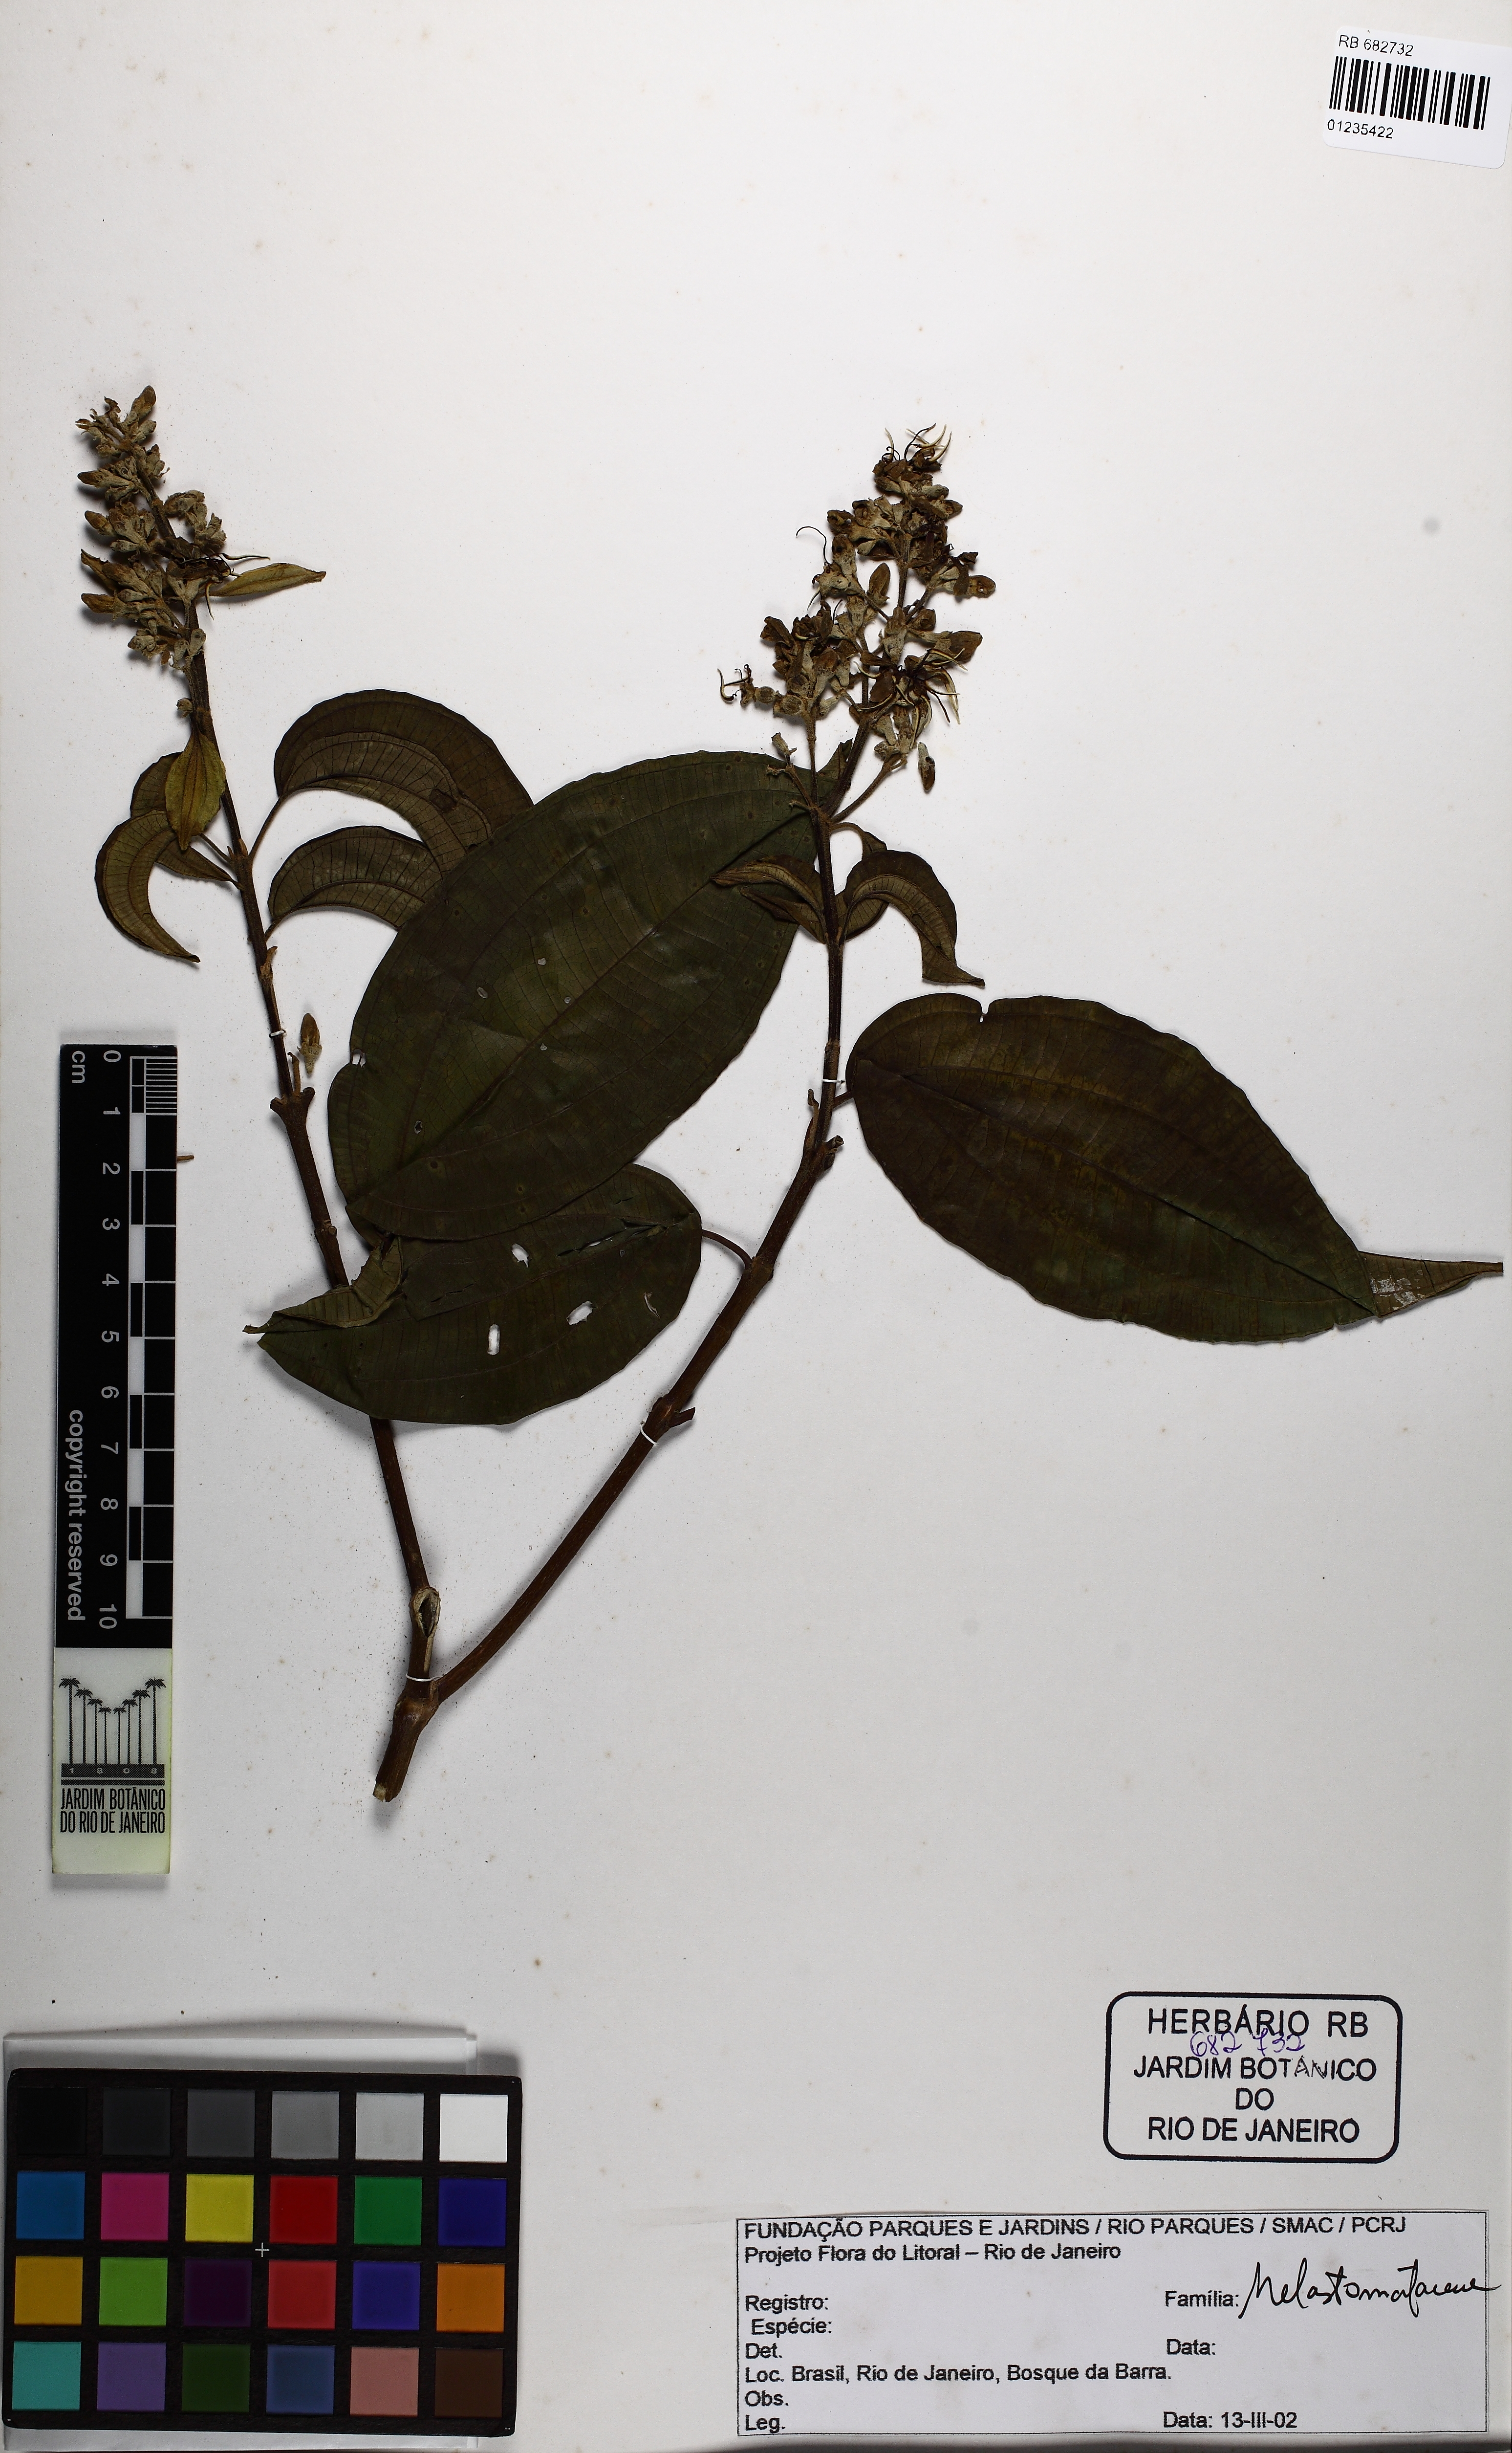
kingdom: Plantae
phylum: Tracheophyta
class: Magnoliopsida
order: Myrtales
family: Melastomataceae
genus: Miconia
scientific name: Miconia staminea
